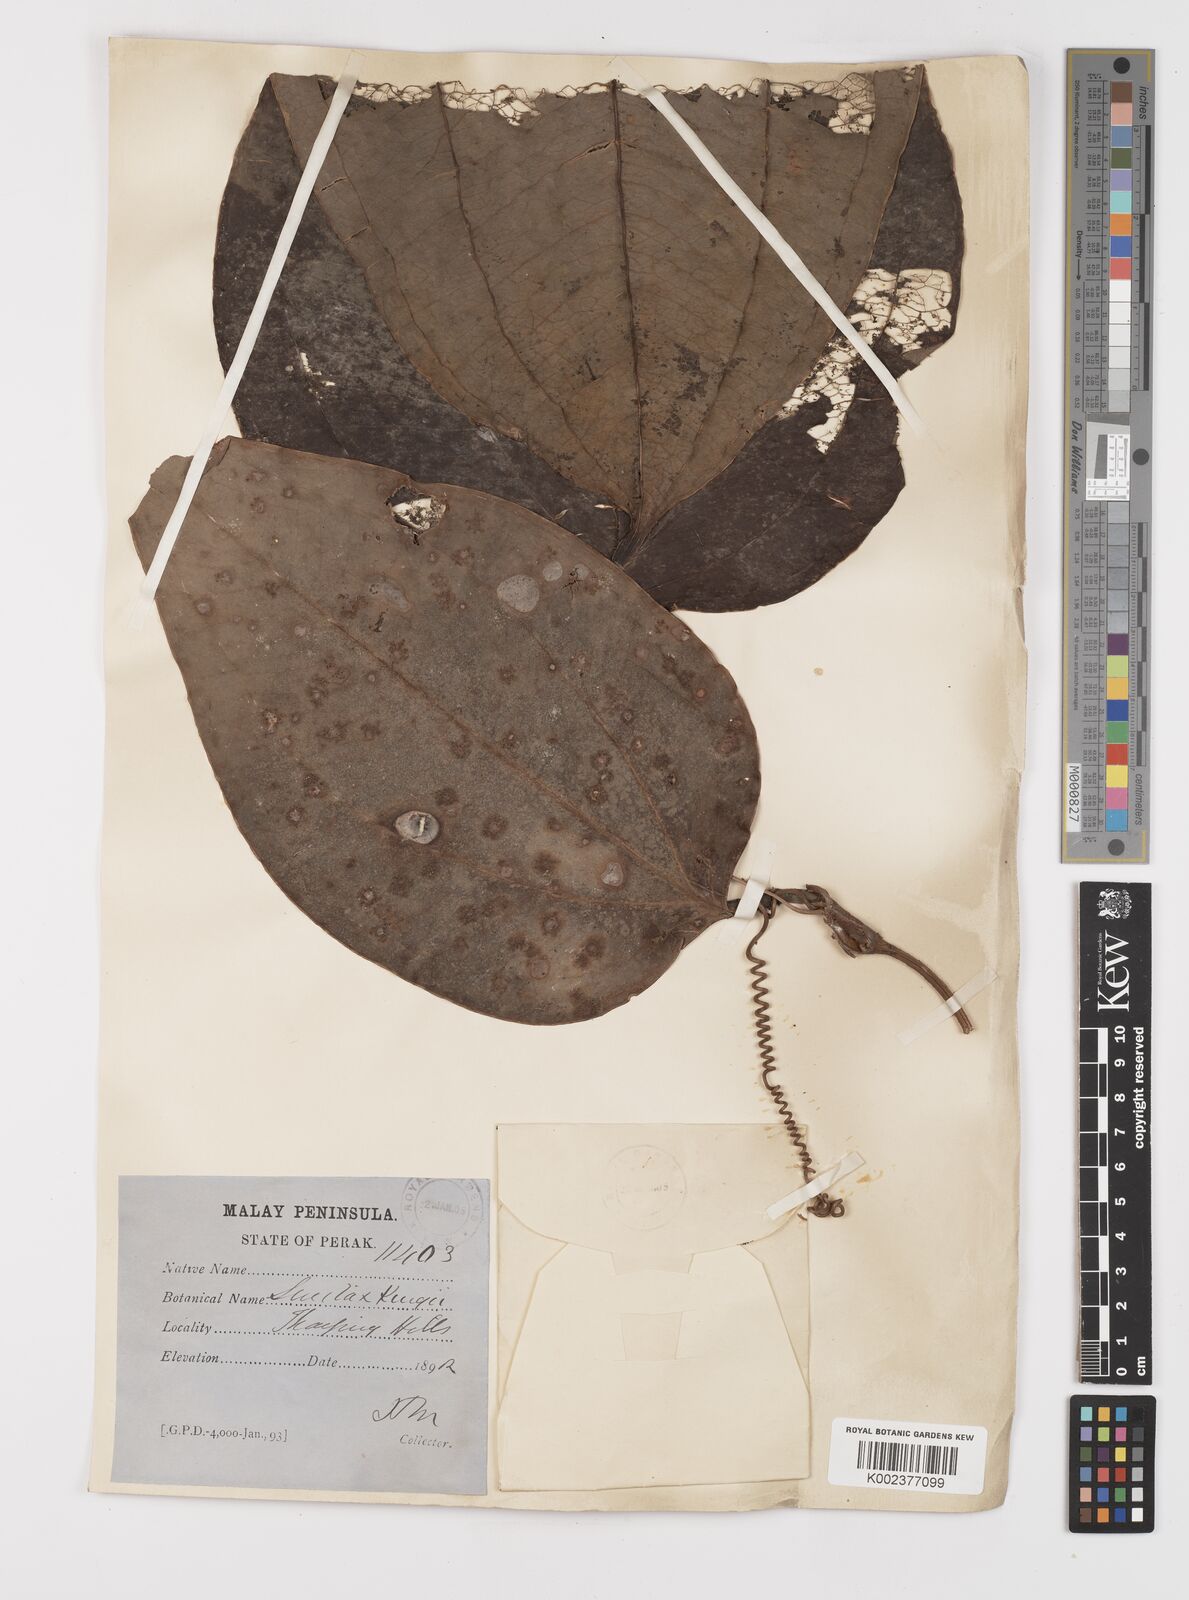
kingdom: Plantae
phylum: Tracheophyta
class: Liliopsida
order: Liliales
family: Smilacaceae
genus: Smilax
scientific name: Smilax kingii
